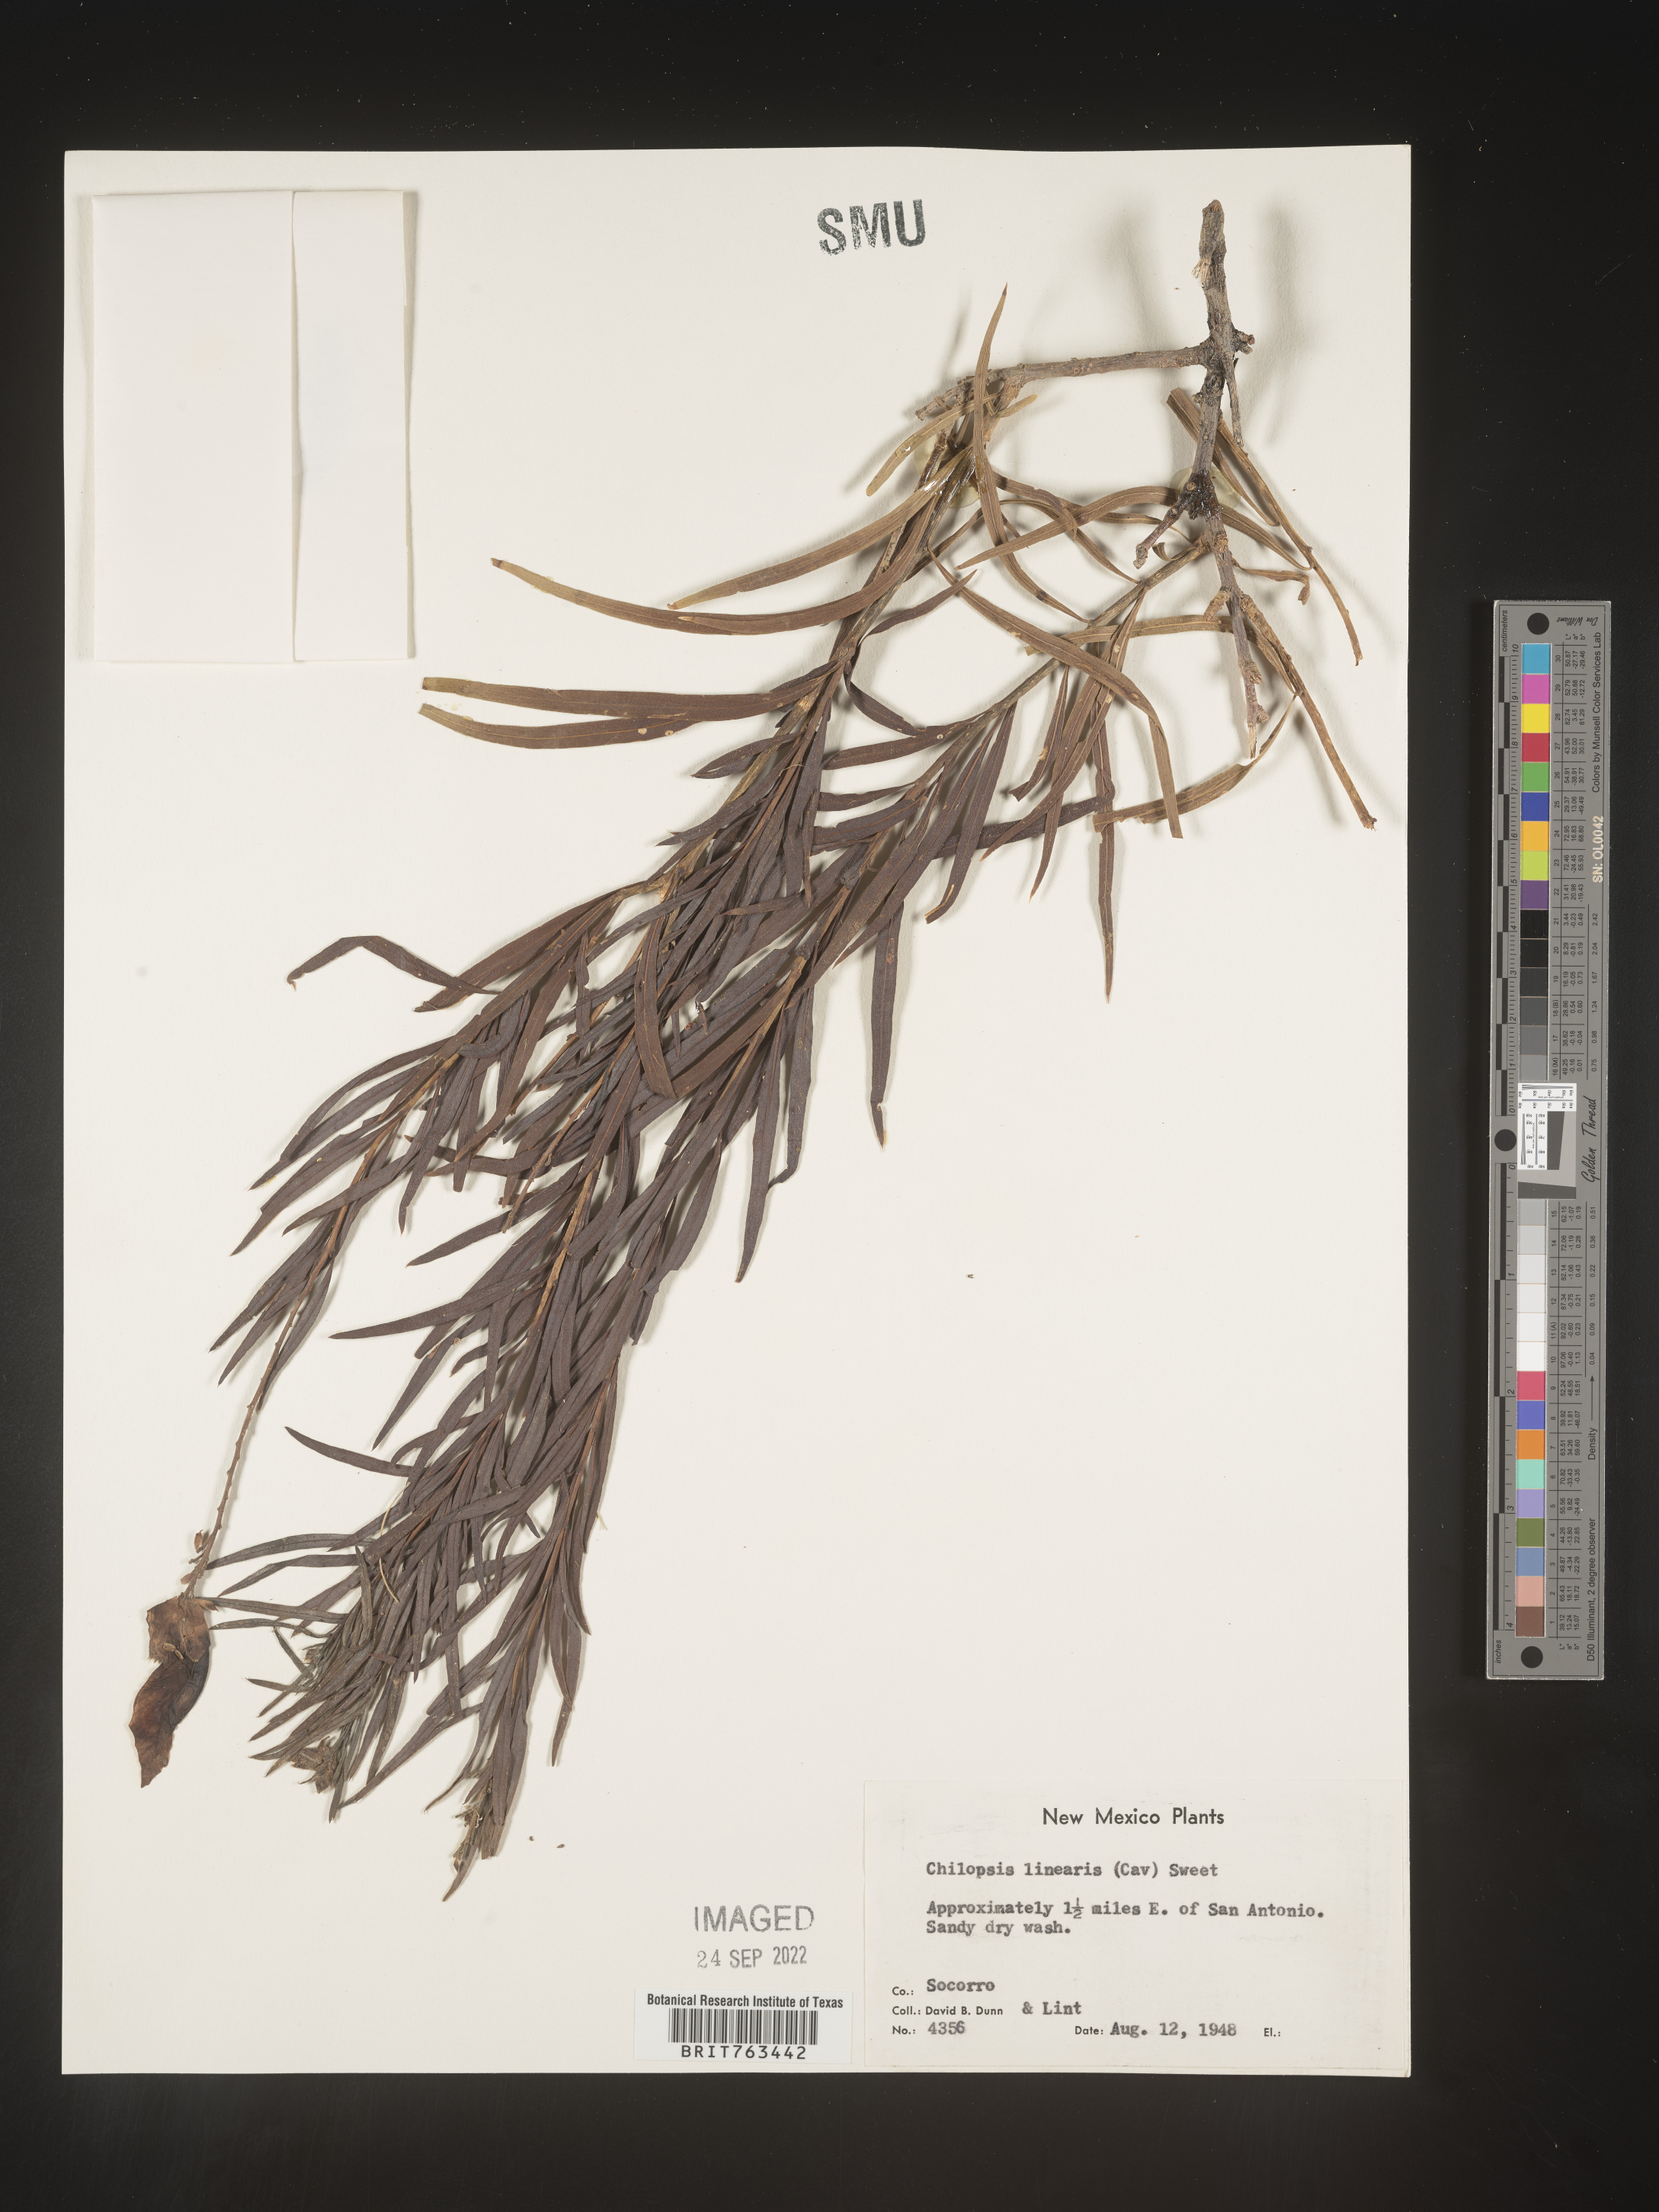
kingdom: Plantae
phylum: Tracheophyta
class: Magnoliopsida
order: Lamiales
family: Bignoniaceae
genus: Chilopsis
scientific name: Chilopsis linearis
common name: Desert-willow
